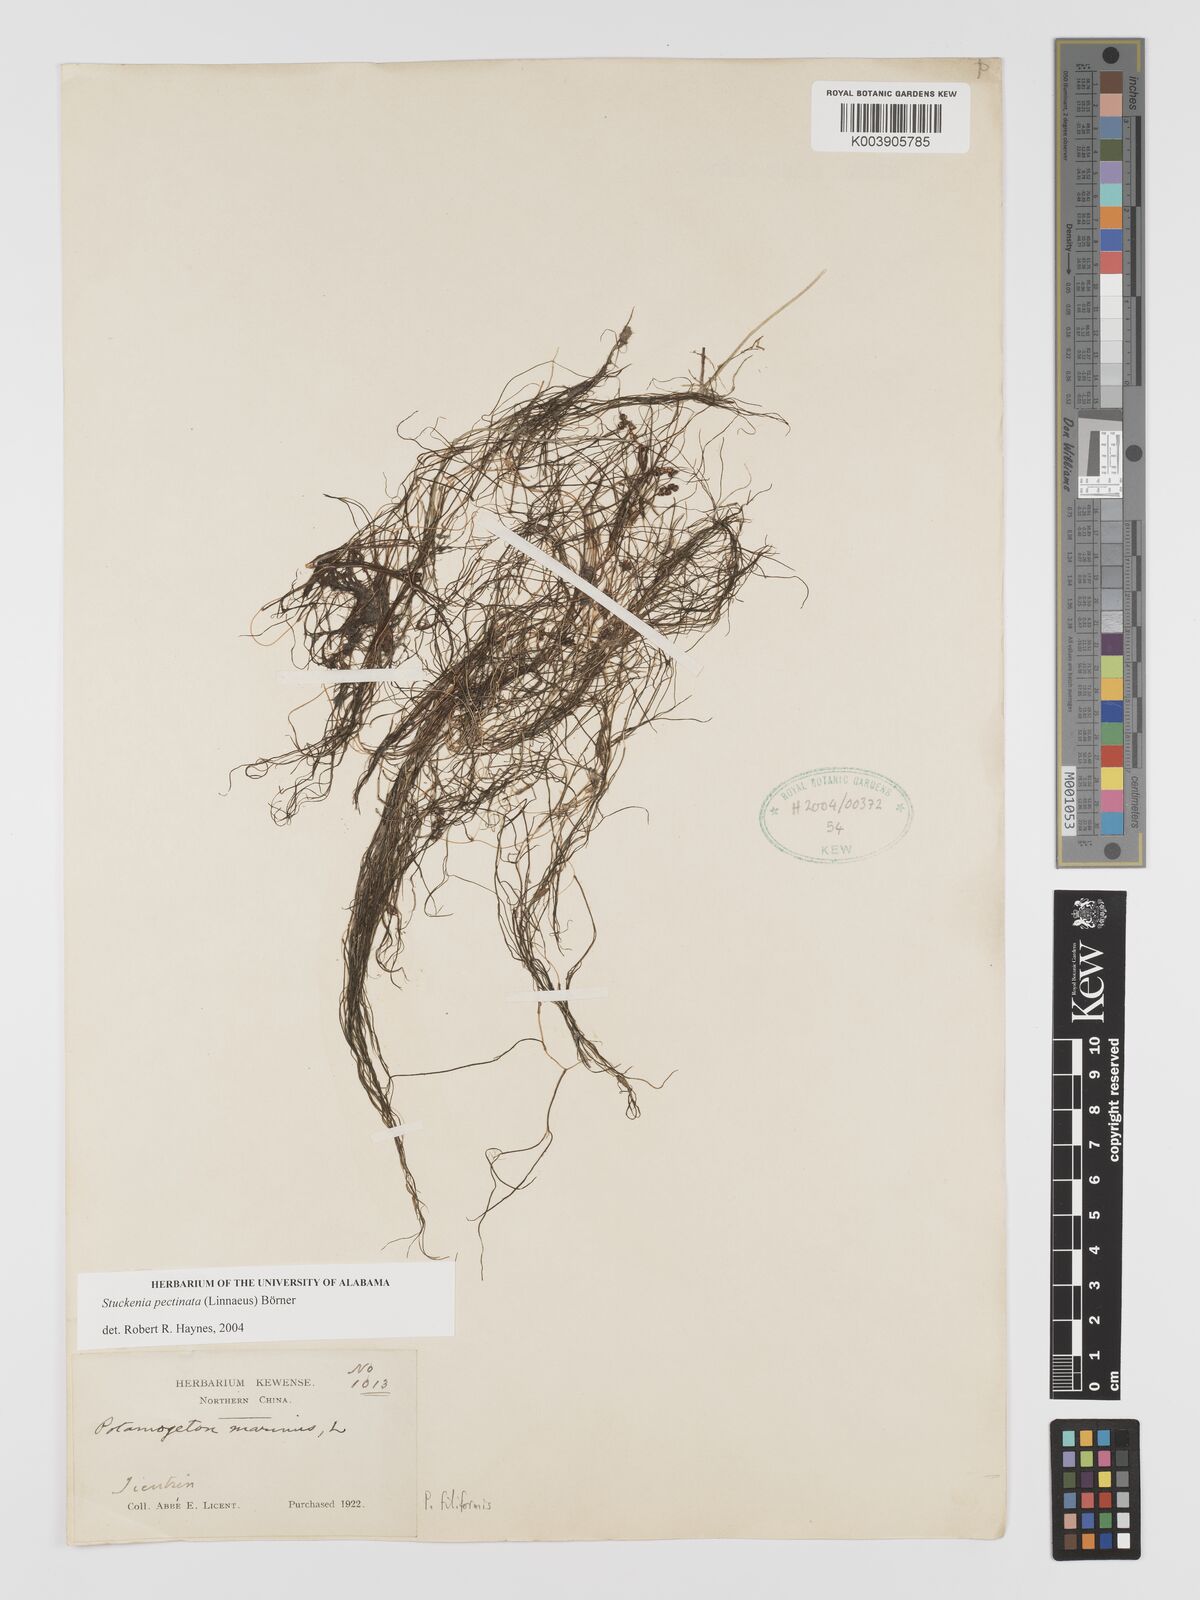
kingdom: Plantae
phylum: Tracheophyta
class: Liliopsida
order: Alismatales
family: Potamogetonaceae
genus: Stuckenia
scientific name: Stuckenia pectinata
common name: Sago pondweed
